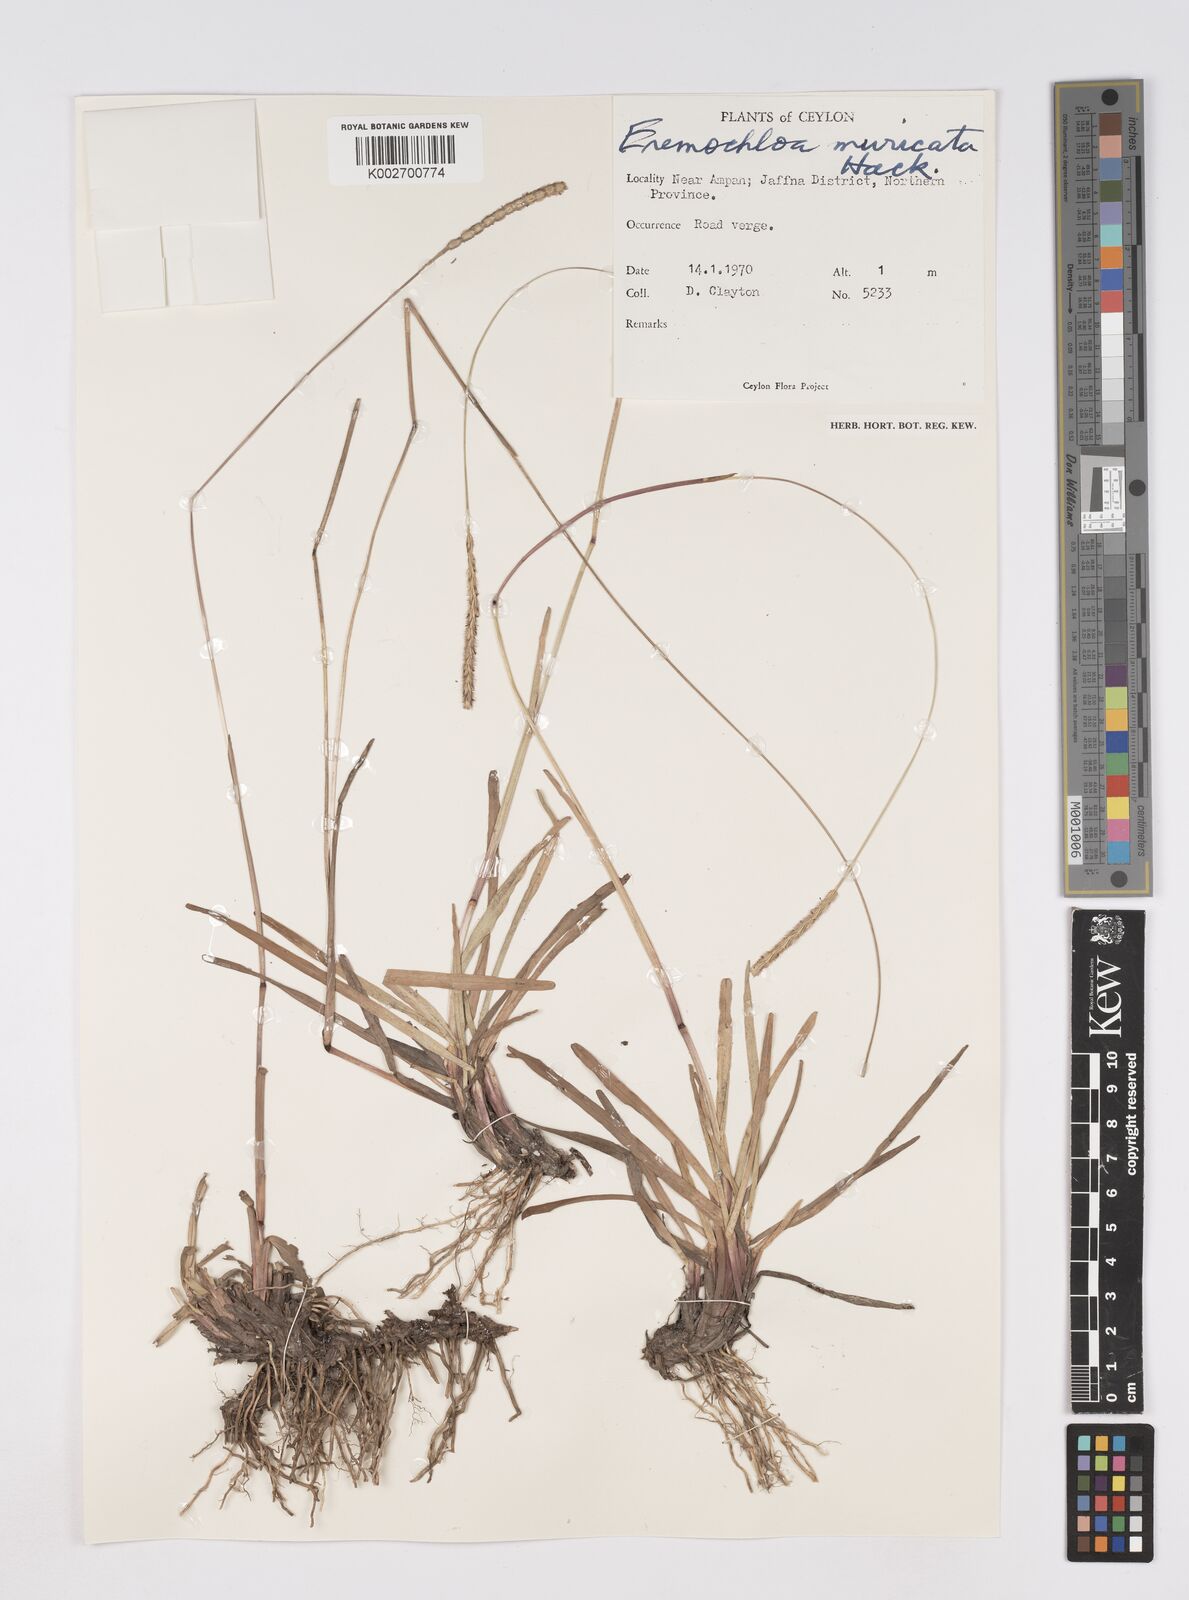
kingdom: Plantae
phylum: Tracheophyta
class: Liliopsida
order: Poales
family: Poaceae
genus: Eremochloa
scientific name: Eremochloa muricata
